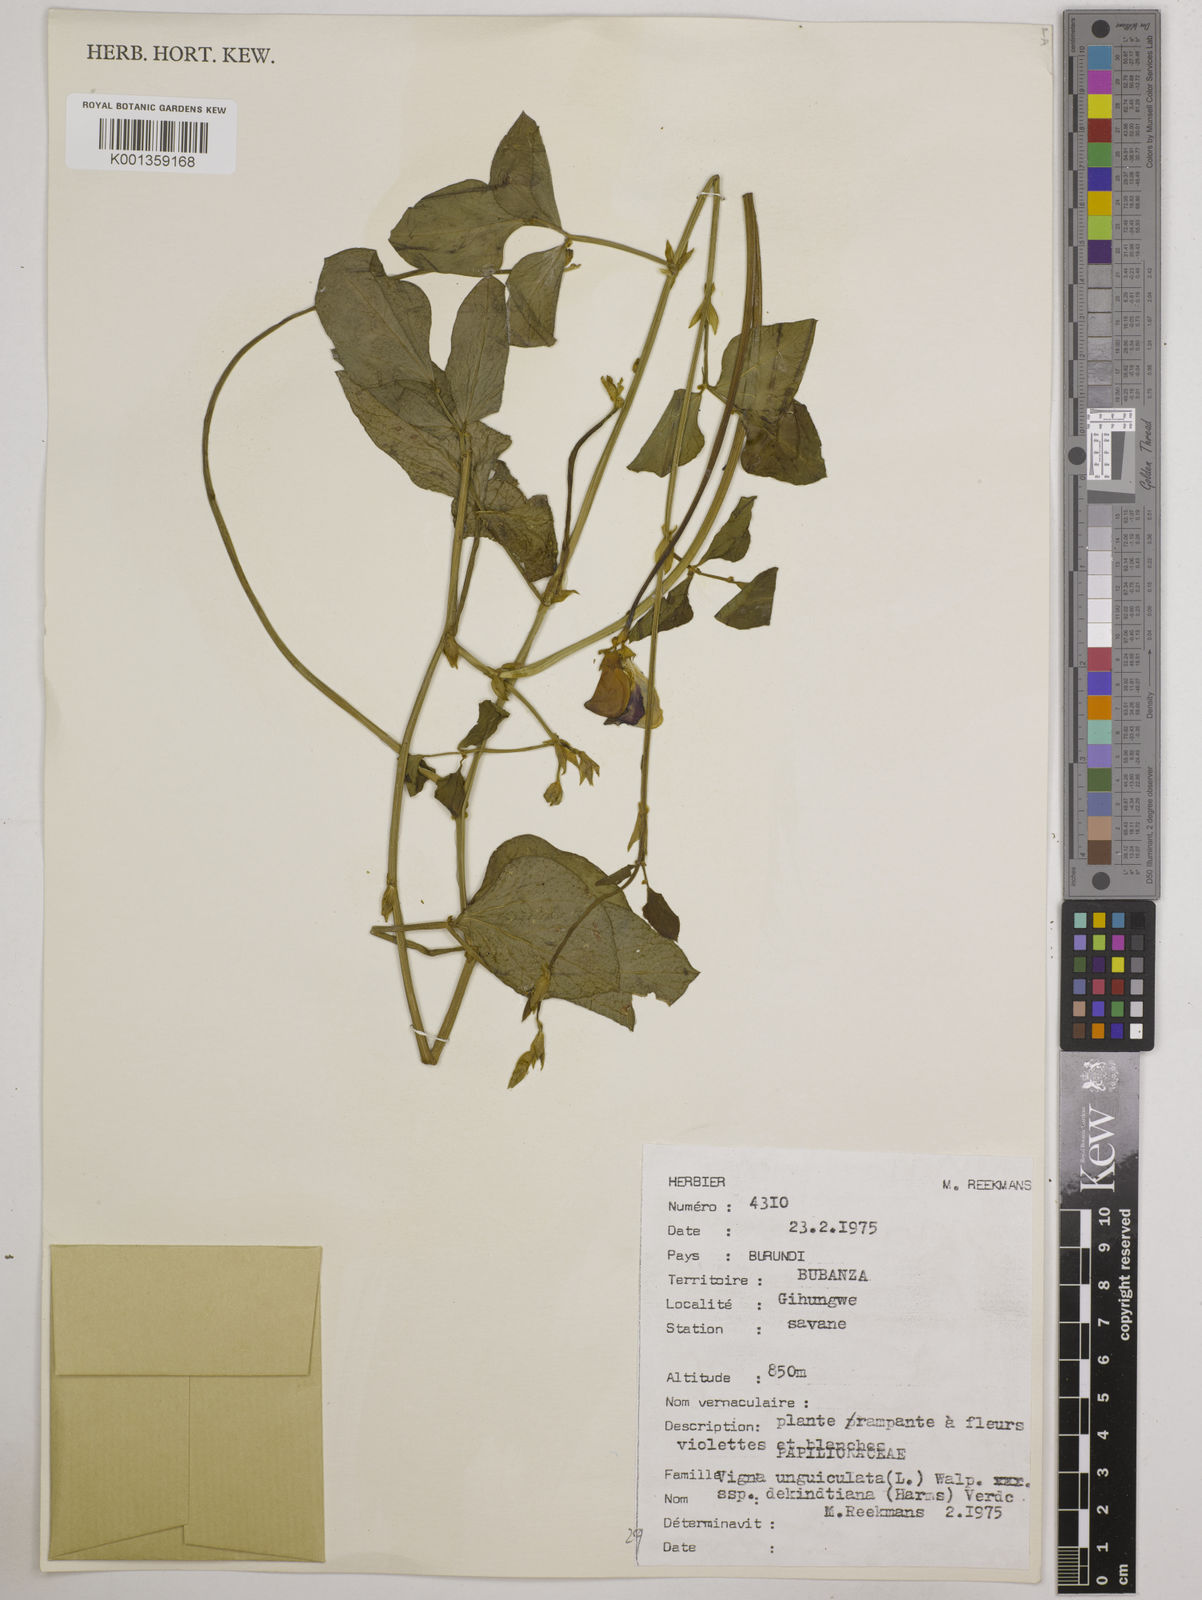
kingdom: Plantae
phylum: Tracheophyta
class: Magnoliopsida
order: Fabales
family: Fabaceae
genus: Vigna
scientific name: Vigna
